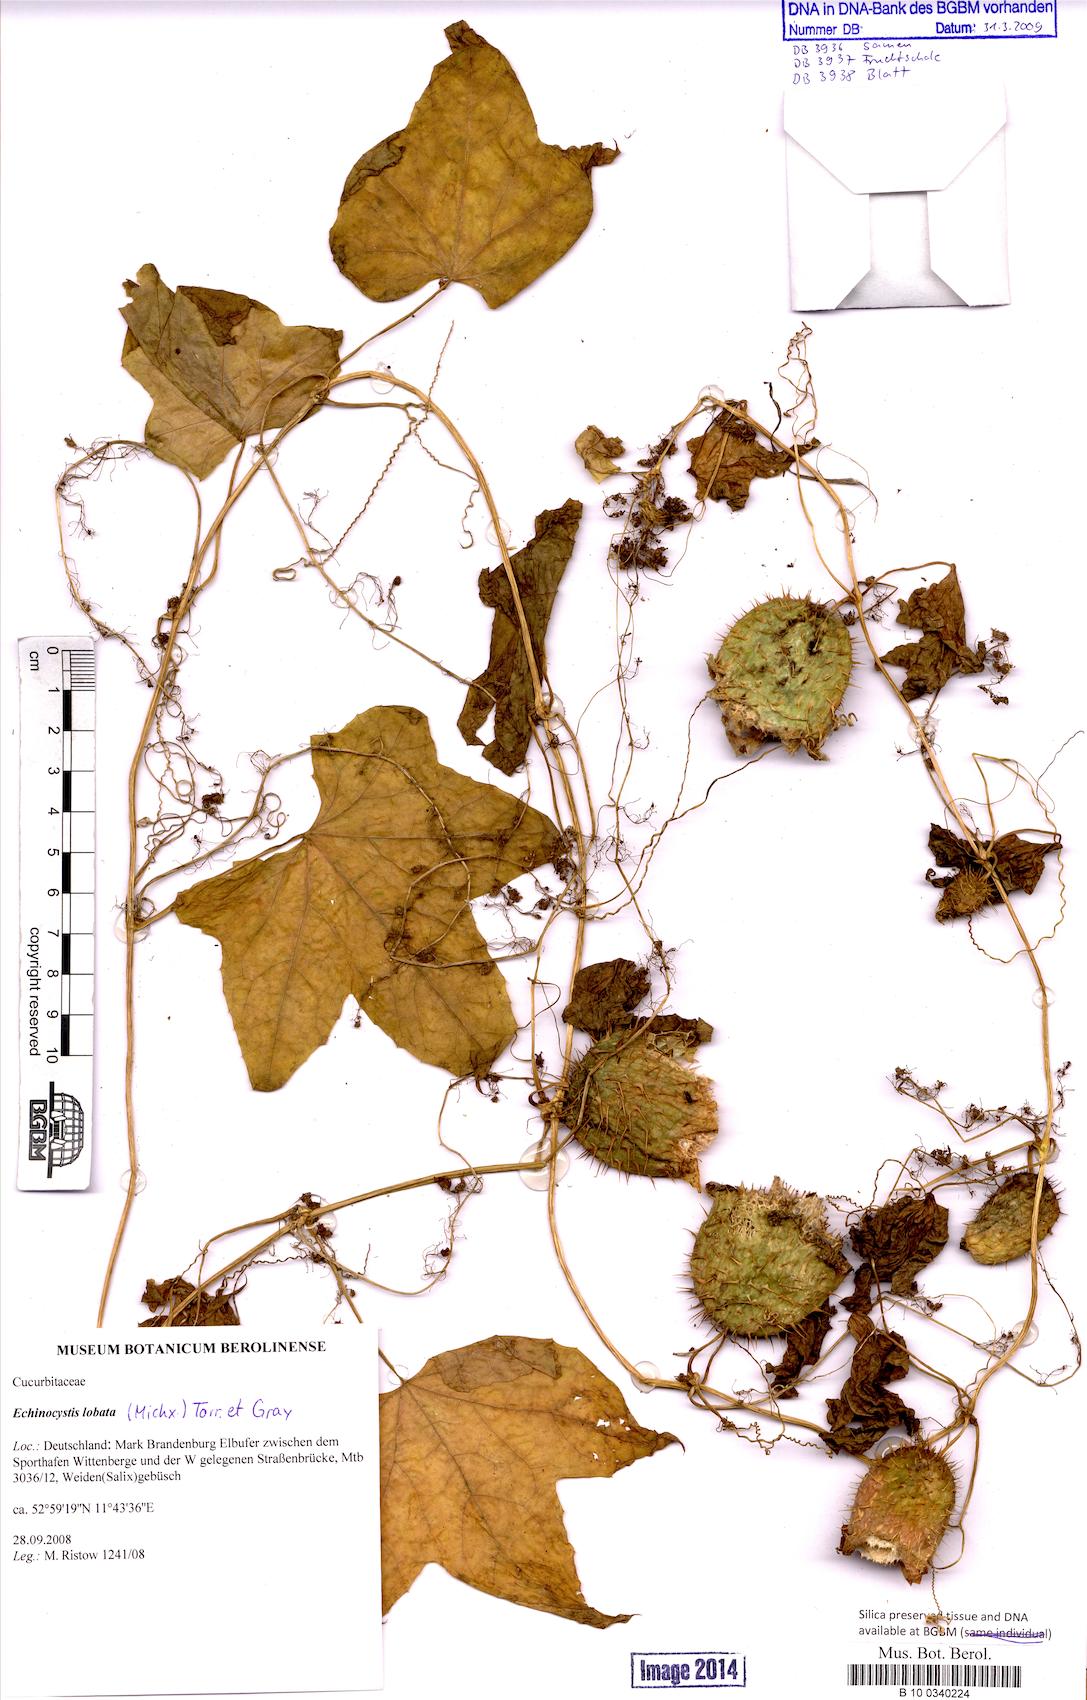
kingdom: Plantae
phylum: Tracheophyta
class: Magnoliopsida
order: Cucurbitales
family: Cucurbitaceae
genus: Echinocystis
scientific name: Echinocystis lobata
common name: Wild cucumber
